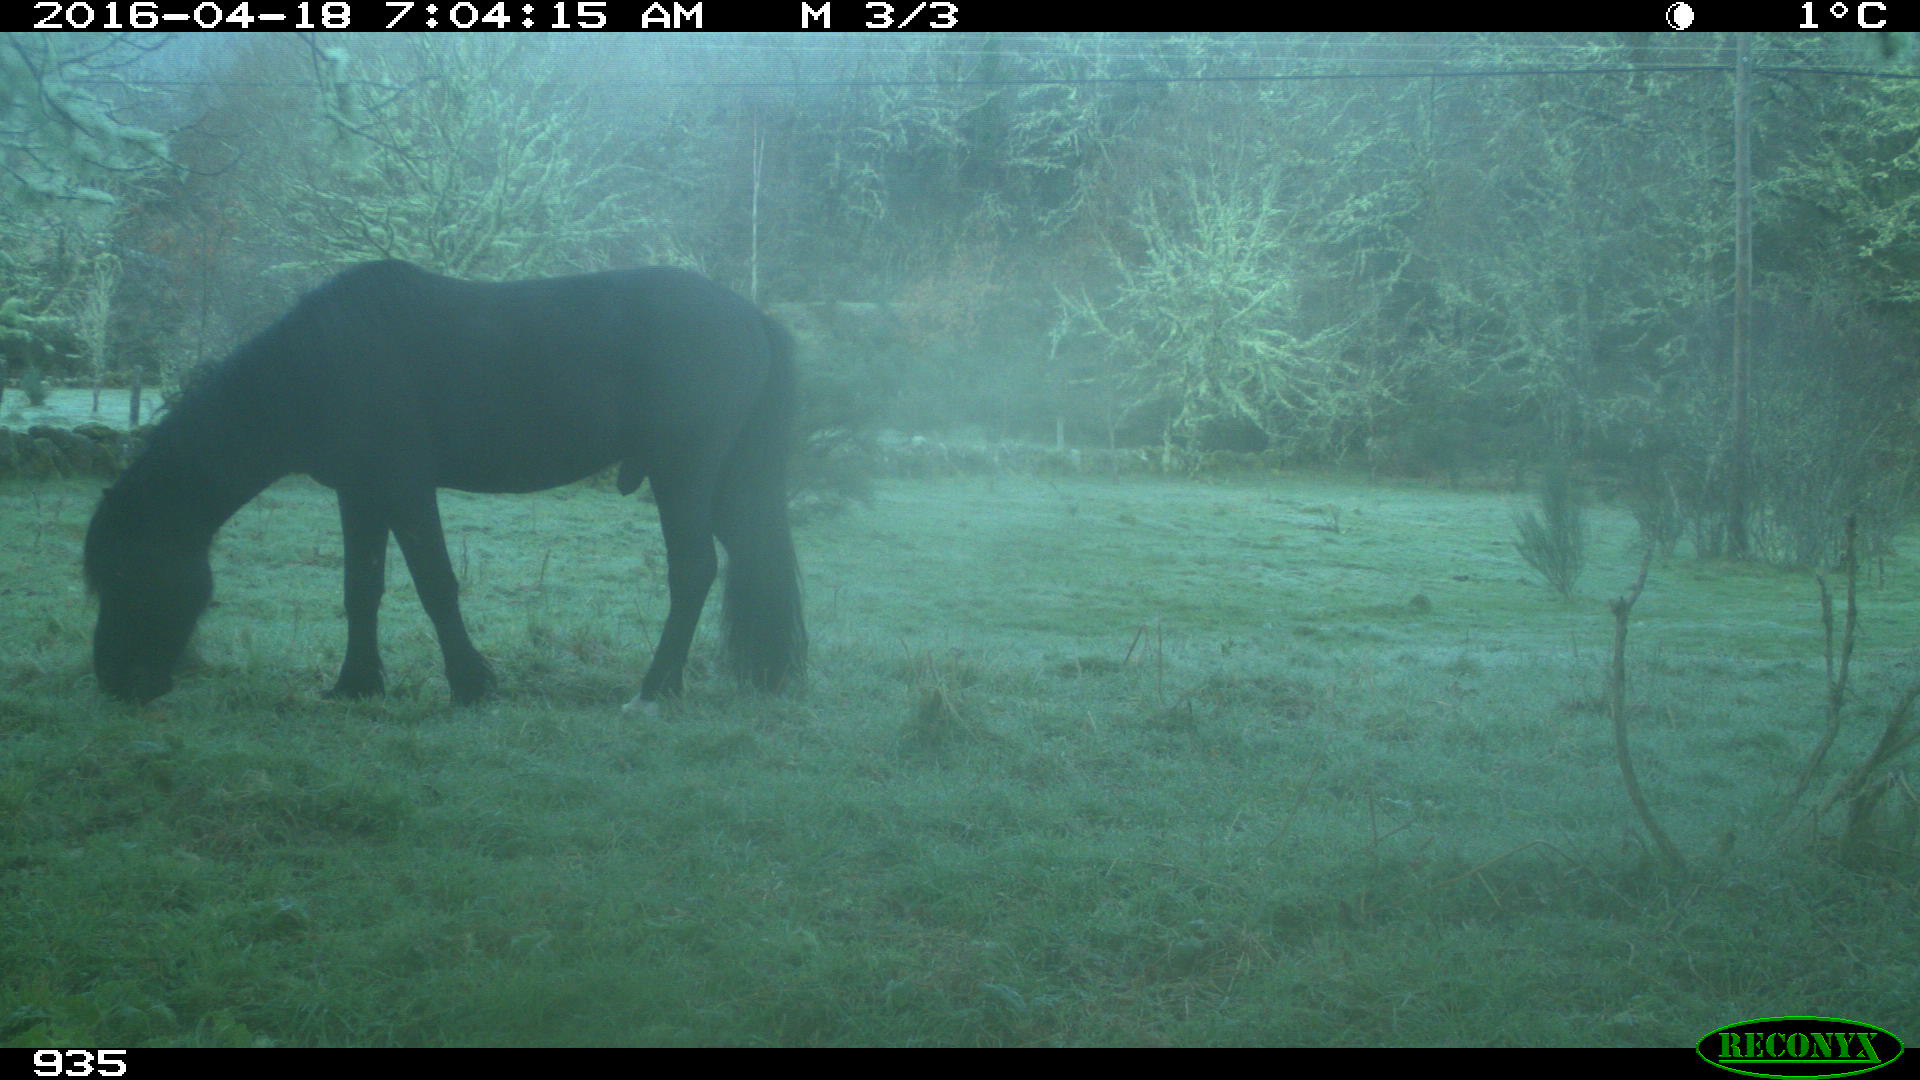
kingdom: Animalia
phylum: Chordata
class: Mammalia
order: Perissodactyla
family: Equidae
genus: Equus
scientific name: Equus caballus
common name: Horse
